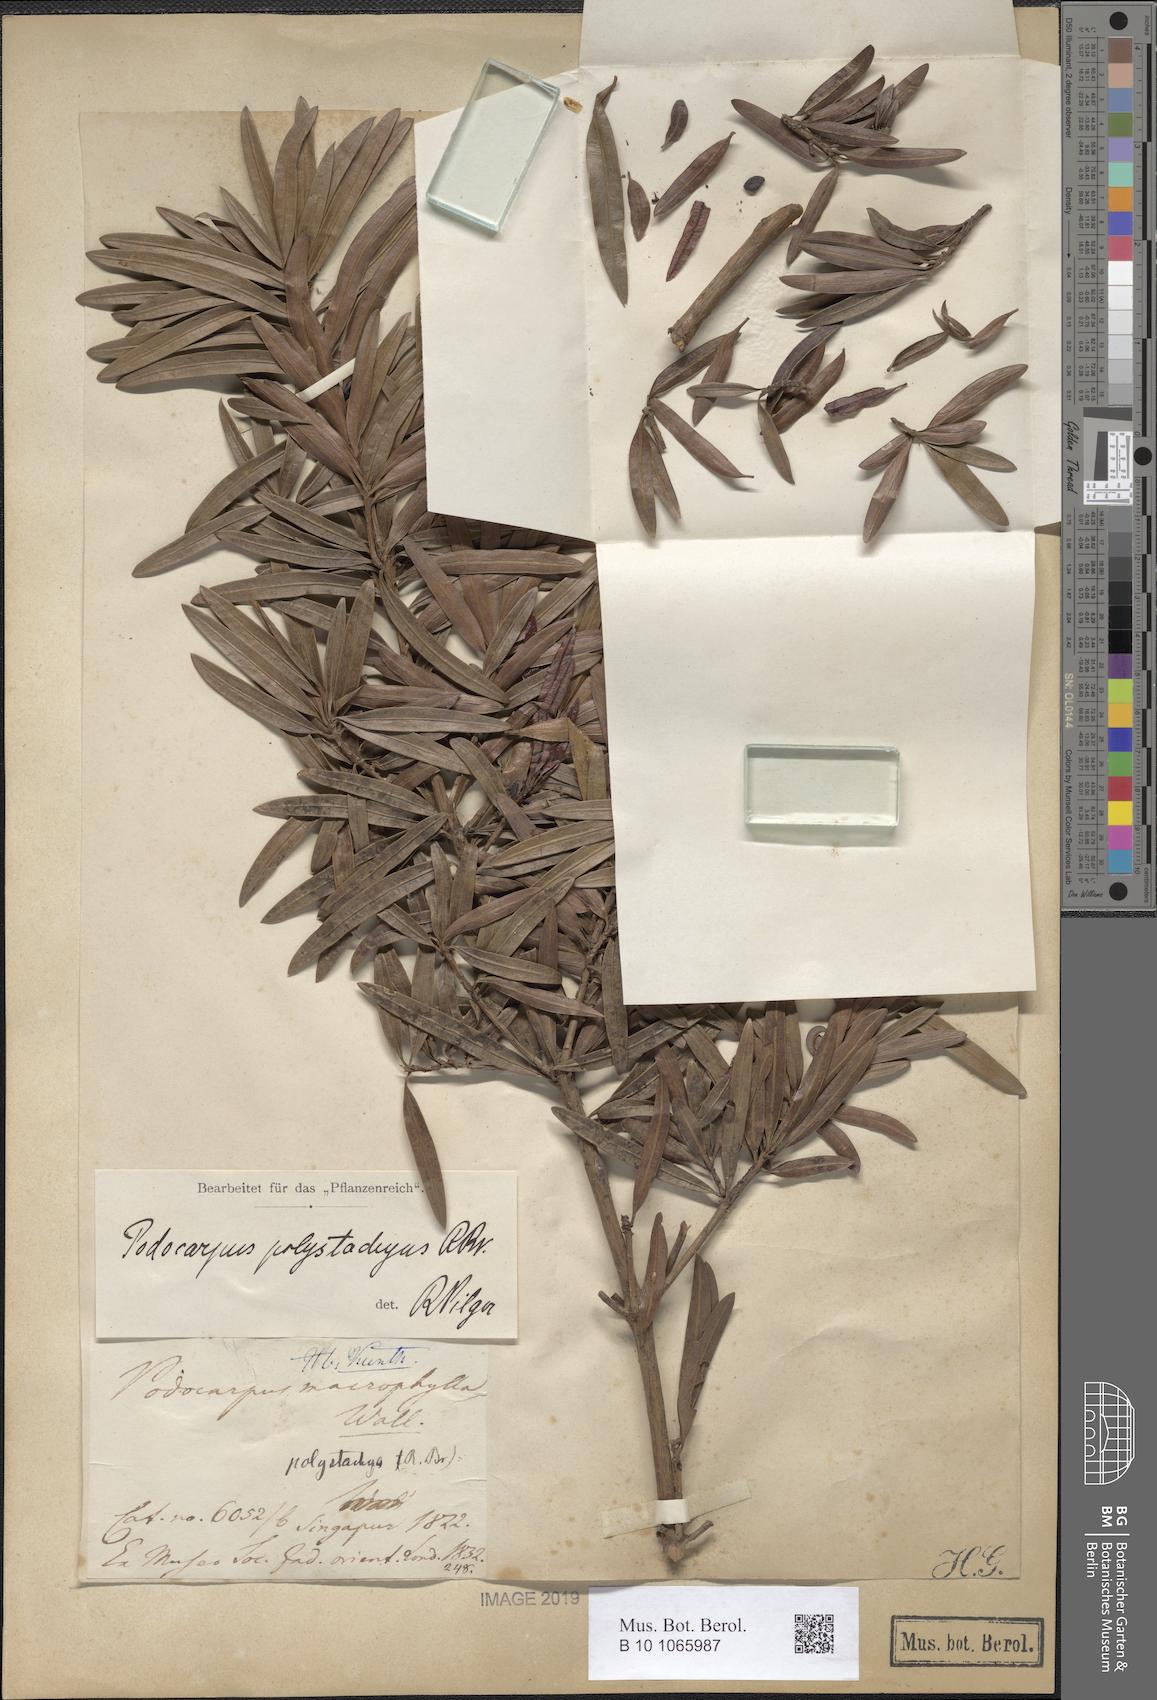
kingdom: Plantae
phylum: Tracheophyta
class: Pinopsida
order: Pinales
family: Podocarpaceae
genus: Podocarpus
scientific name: Podocarpus polystachyus
